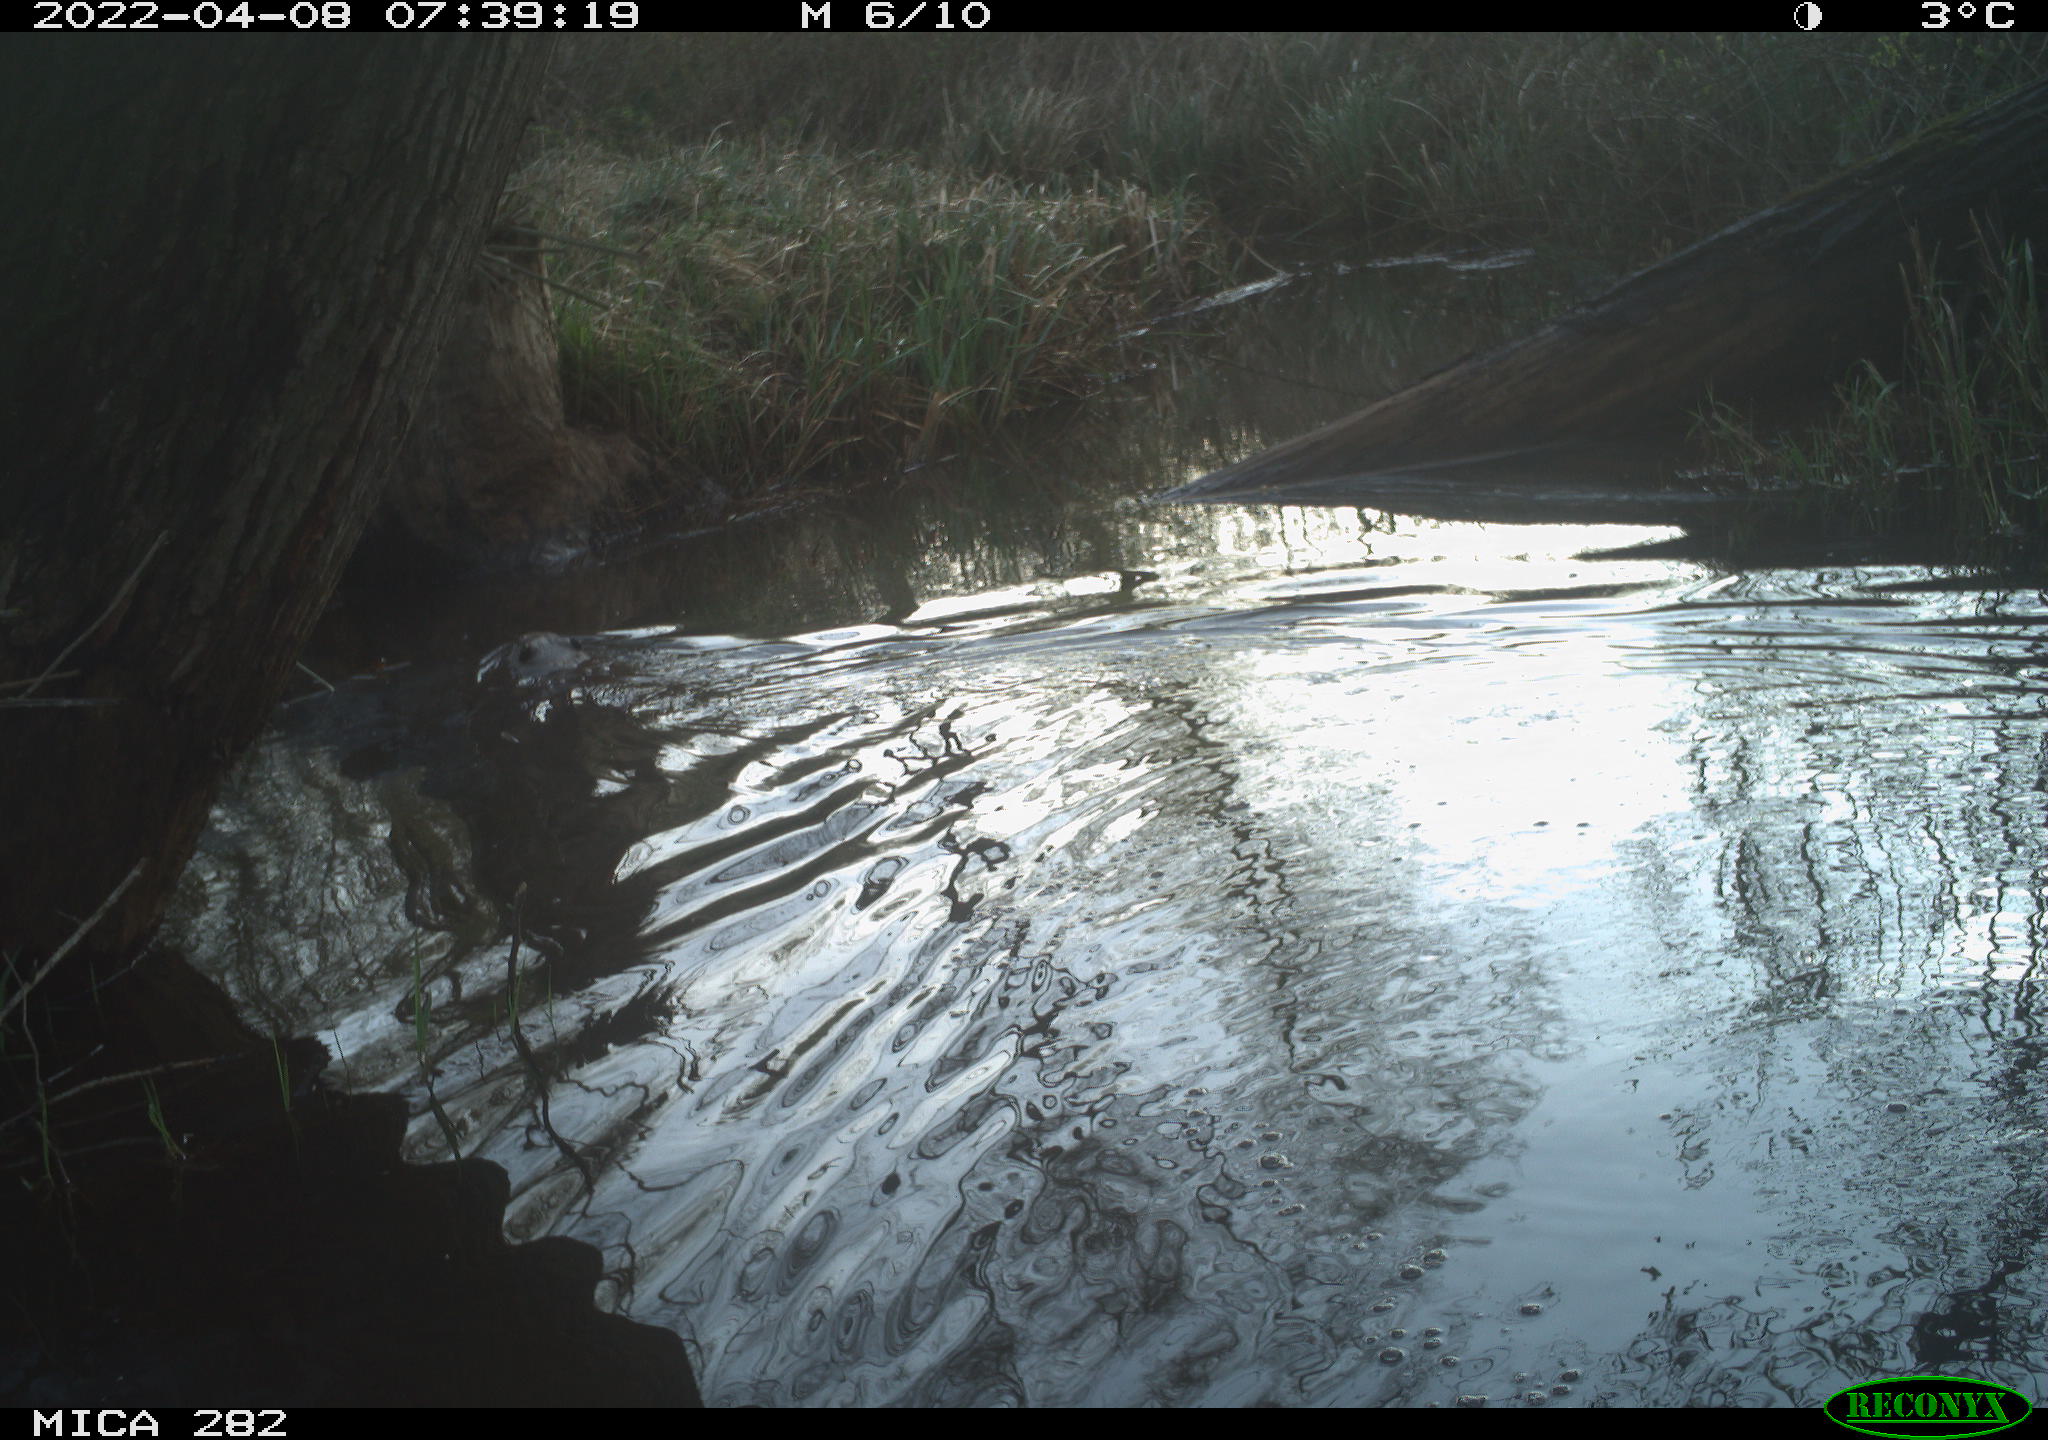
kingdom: Animalia
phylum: Chordata
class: Mammalia
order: Rodentia
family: Castoridae
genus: Castor
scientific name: Castor fiber
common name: Eurasian beaver
